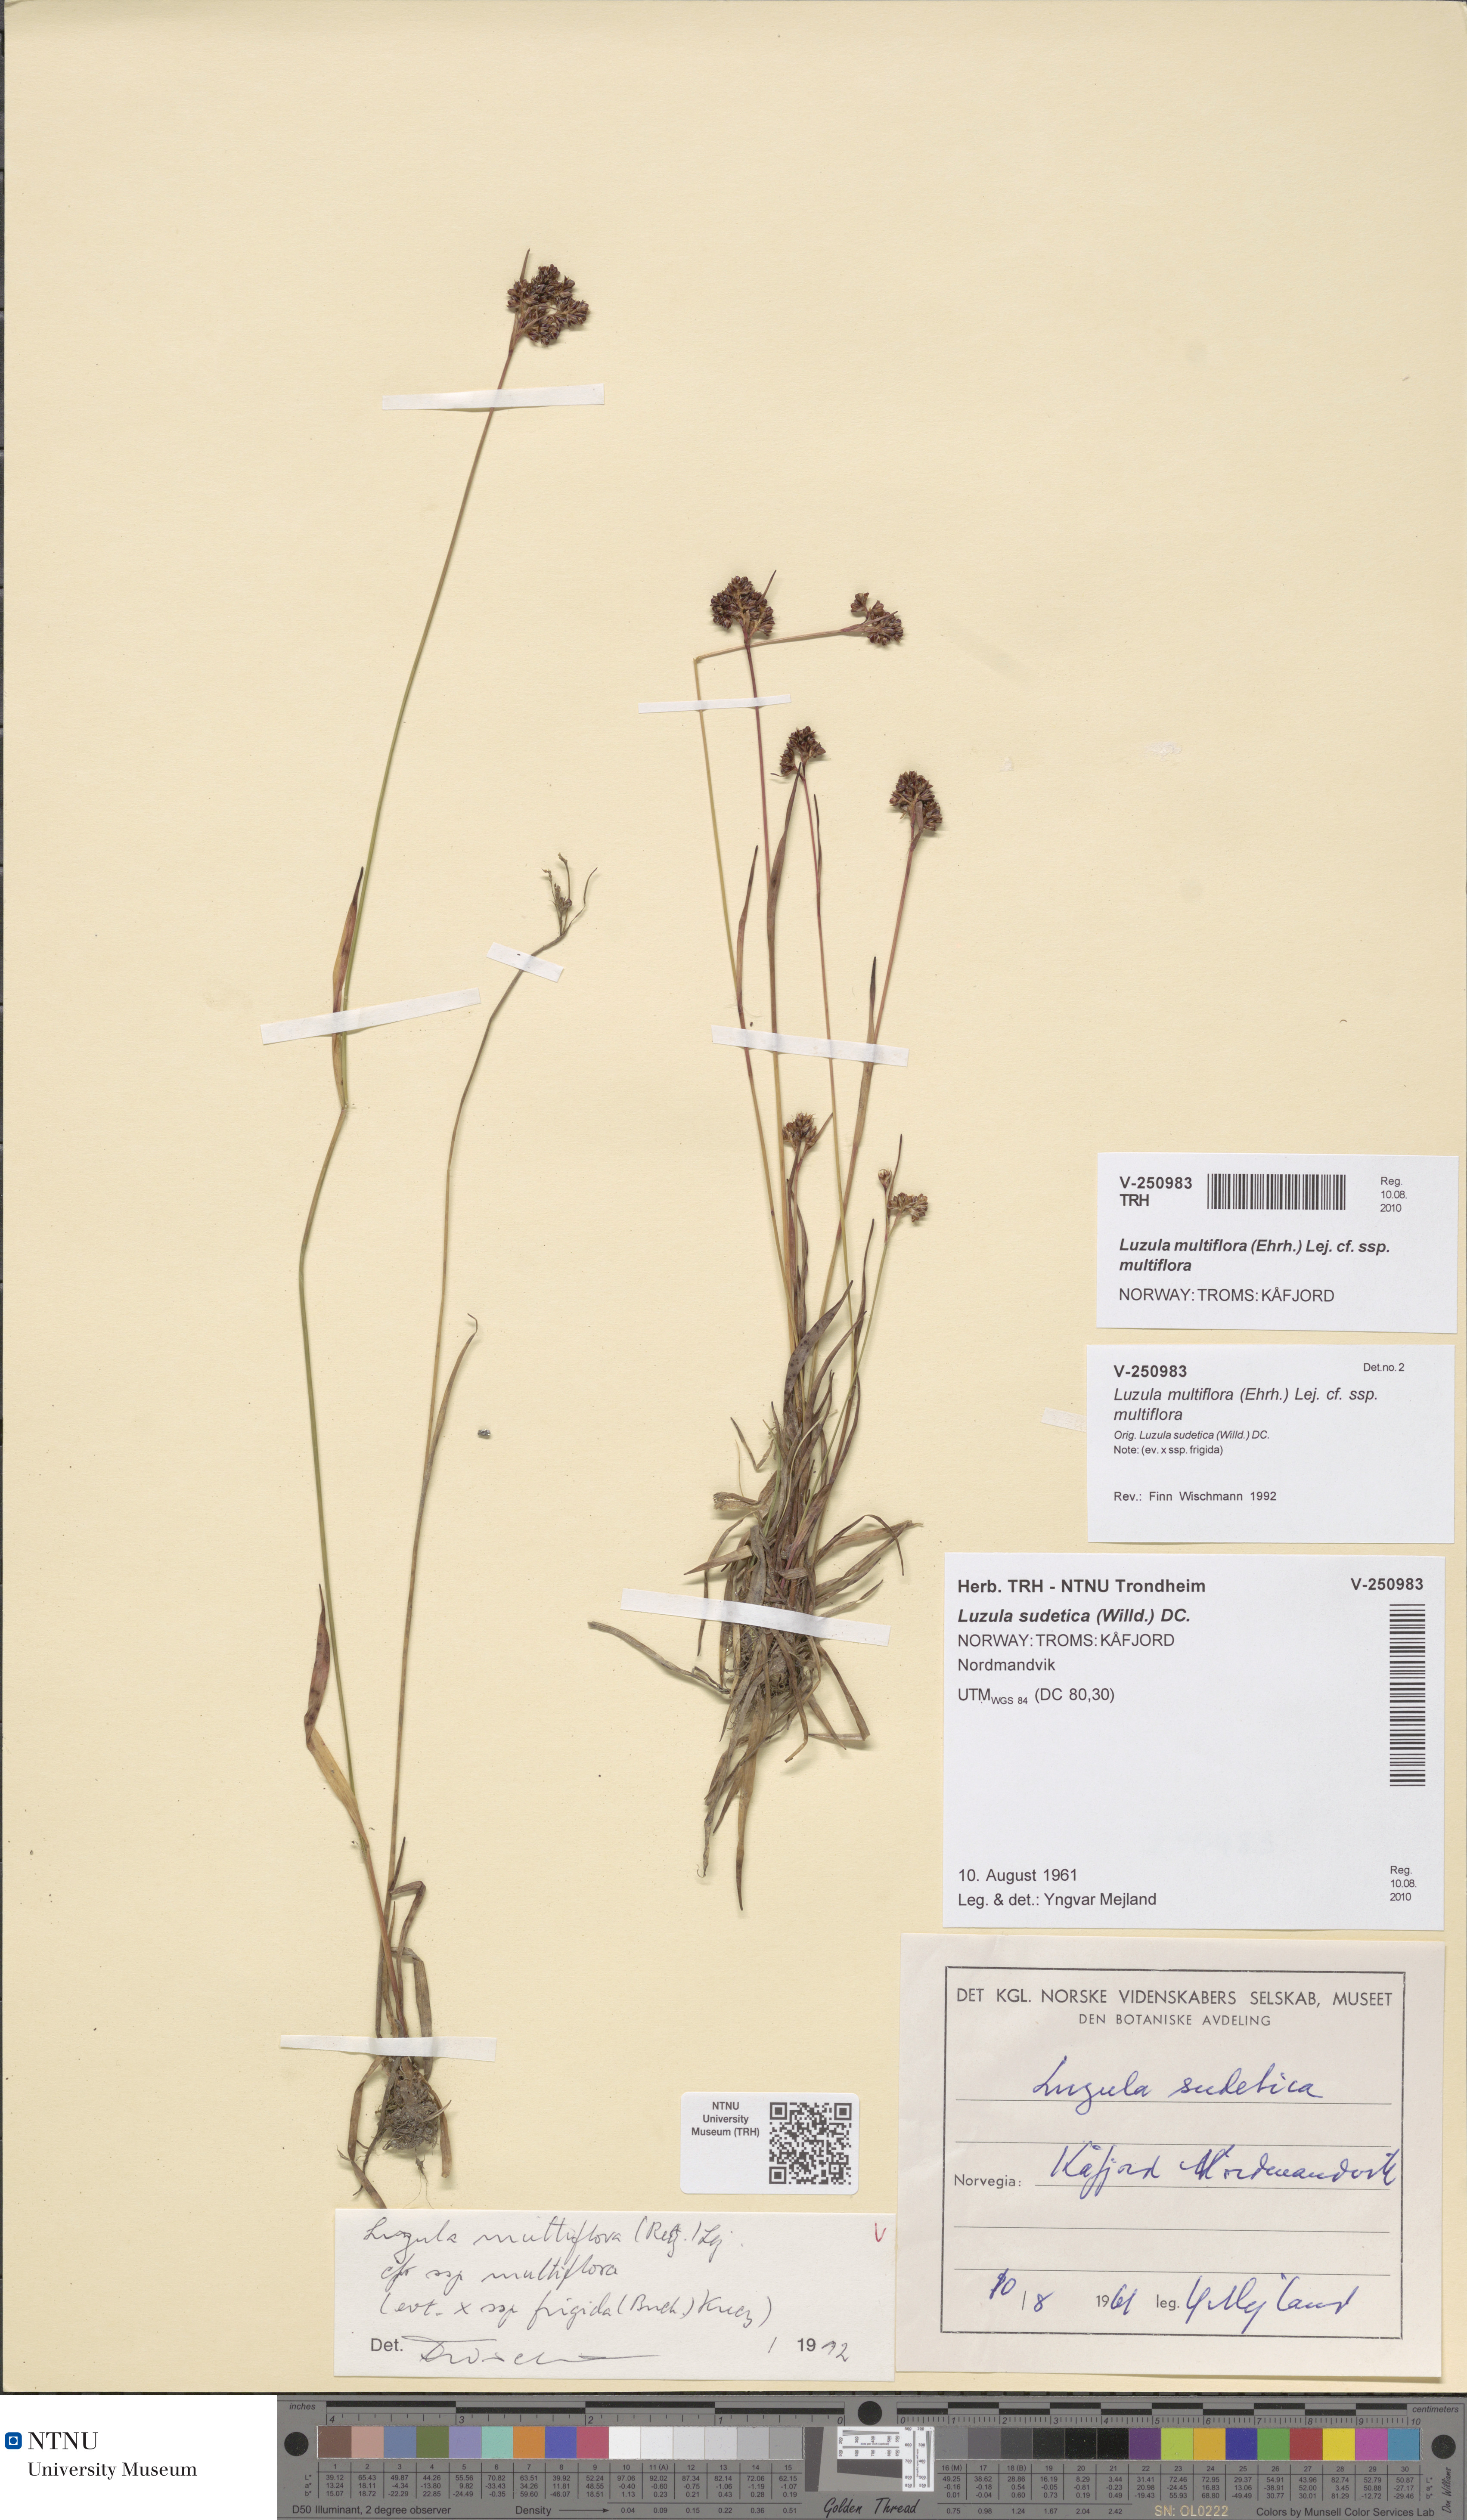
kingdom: Plantae
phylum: Tracheophyta
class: Liliopsida
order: Poales
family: Juncaceae
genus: Luzula
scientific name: Luzula multiflora
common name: Heath wood-rush
